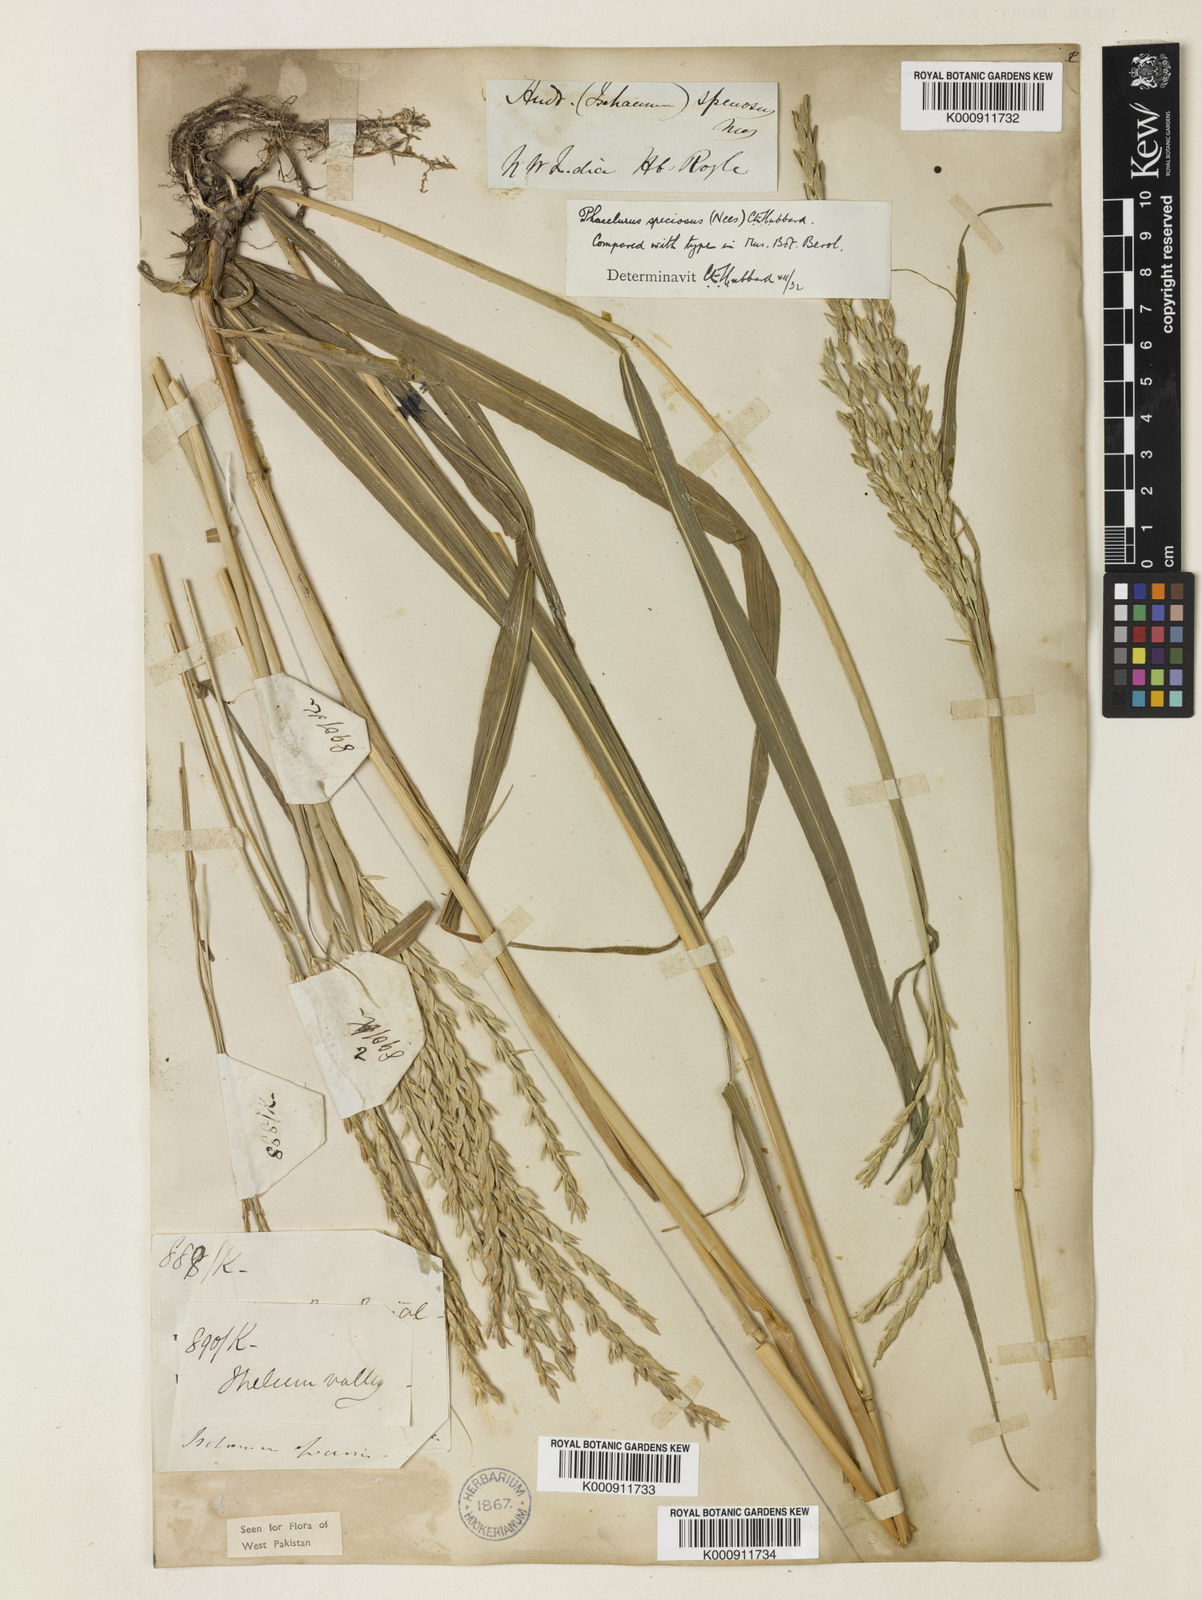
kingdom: Plantae
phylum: Tracheophyta
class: Liliopsida
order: Poales
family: Poaceae
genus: Phacelurus
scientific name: Phacelurus speciosus
